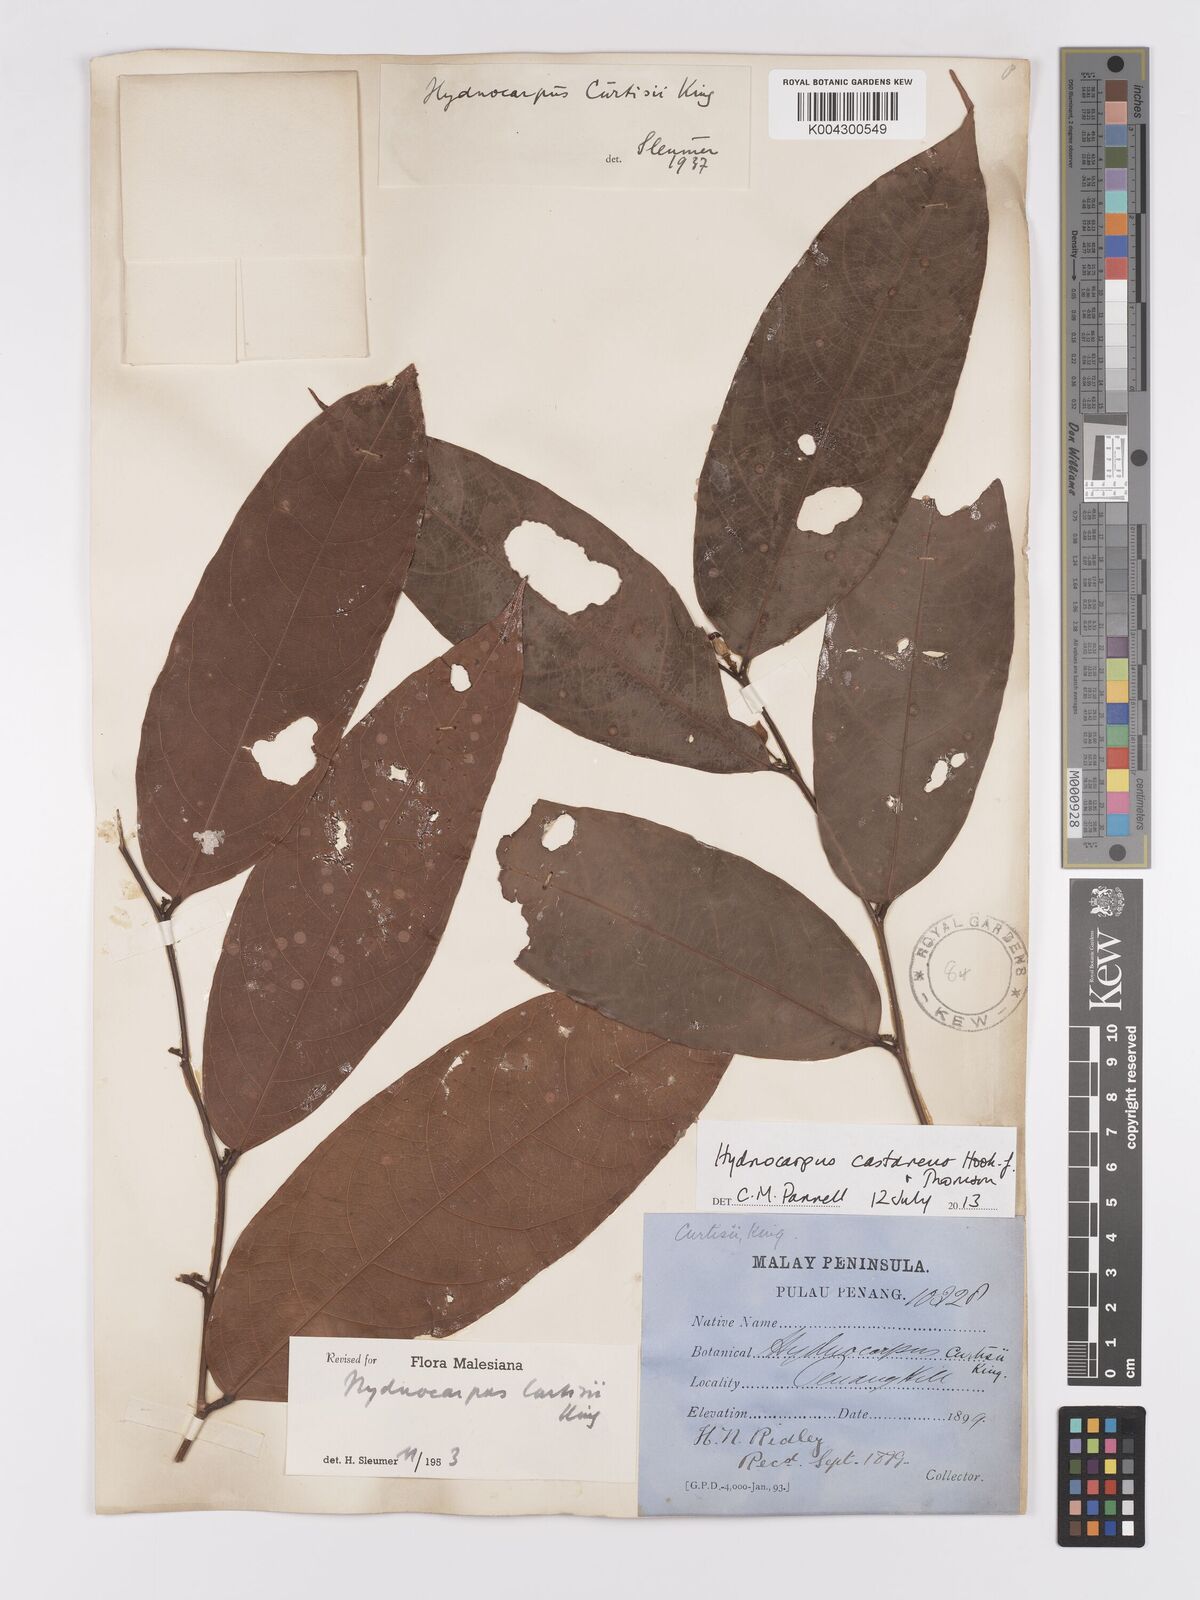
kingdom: Plantae
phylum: Tracheophyta
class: Magnoliopsida
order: Malpighiales
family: Achariaceae
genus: Hydnocarpus
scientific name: Hydnocarpus curtisii
